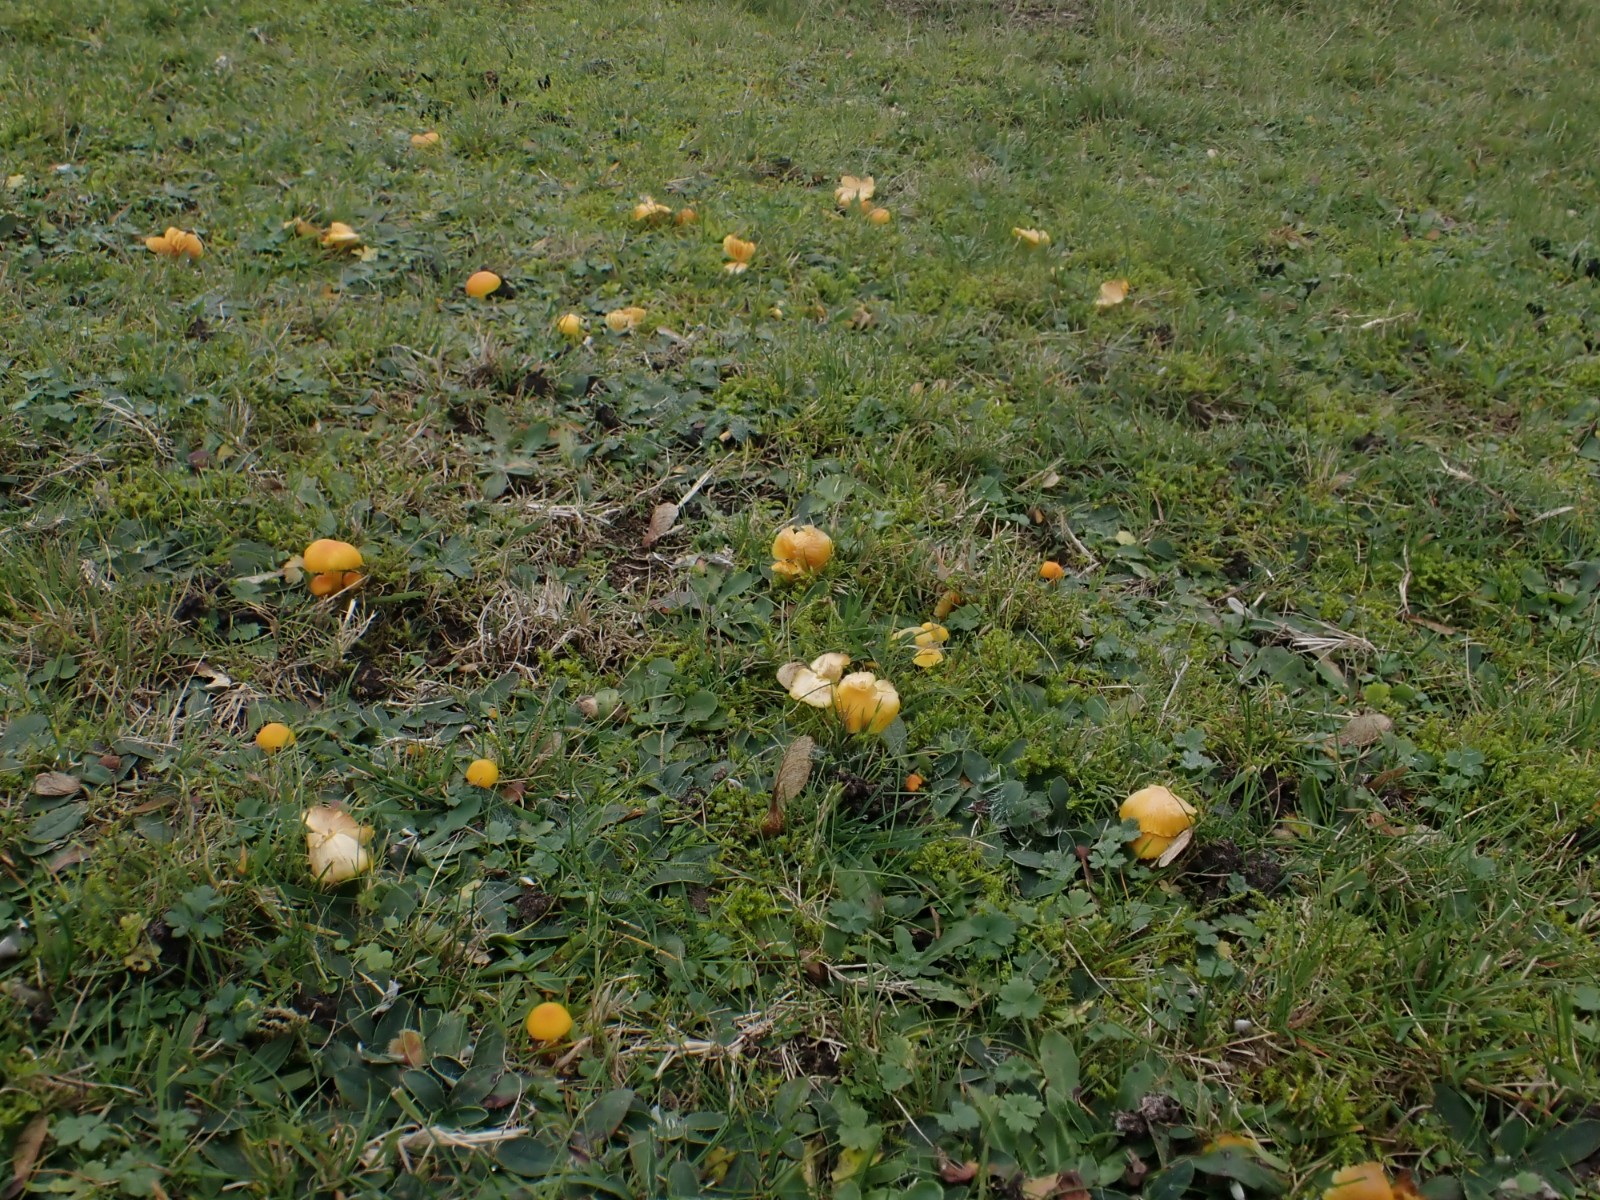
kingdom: Fungi
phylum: Basidiomycota
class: Agaricomycetes
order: Agaricales
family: Hygrophoraceae
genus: Hygrocybe
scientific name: Hygrocybe ceracea
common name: voksgul vokshat
